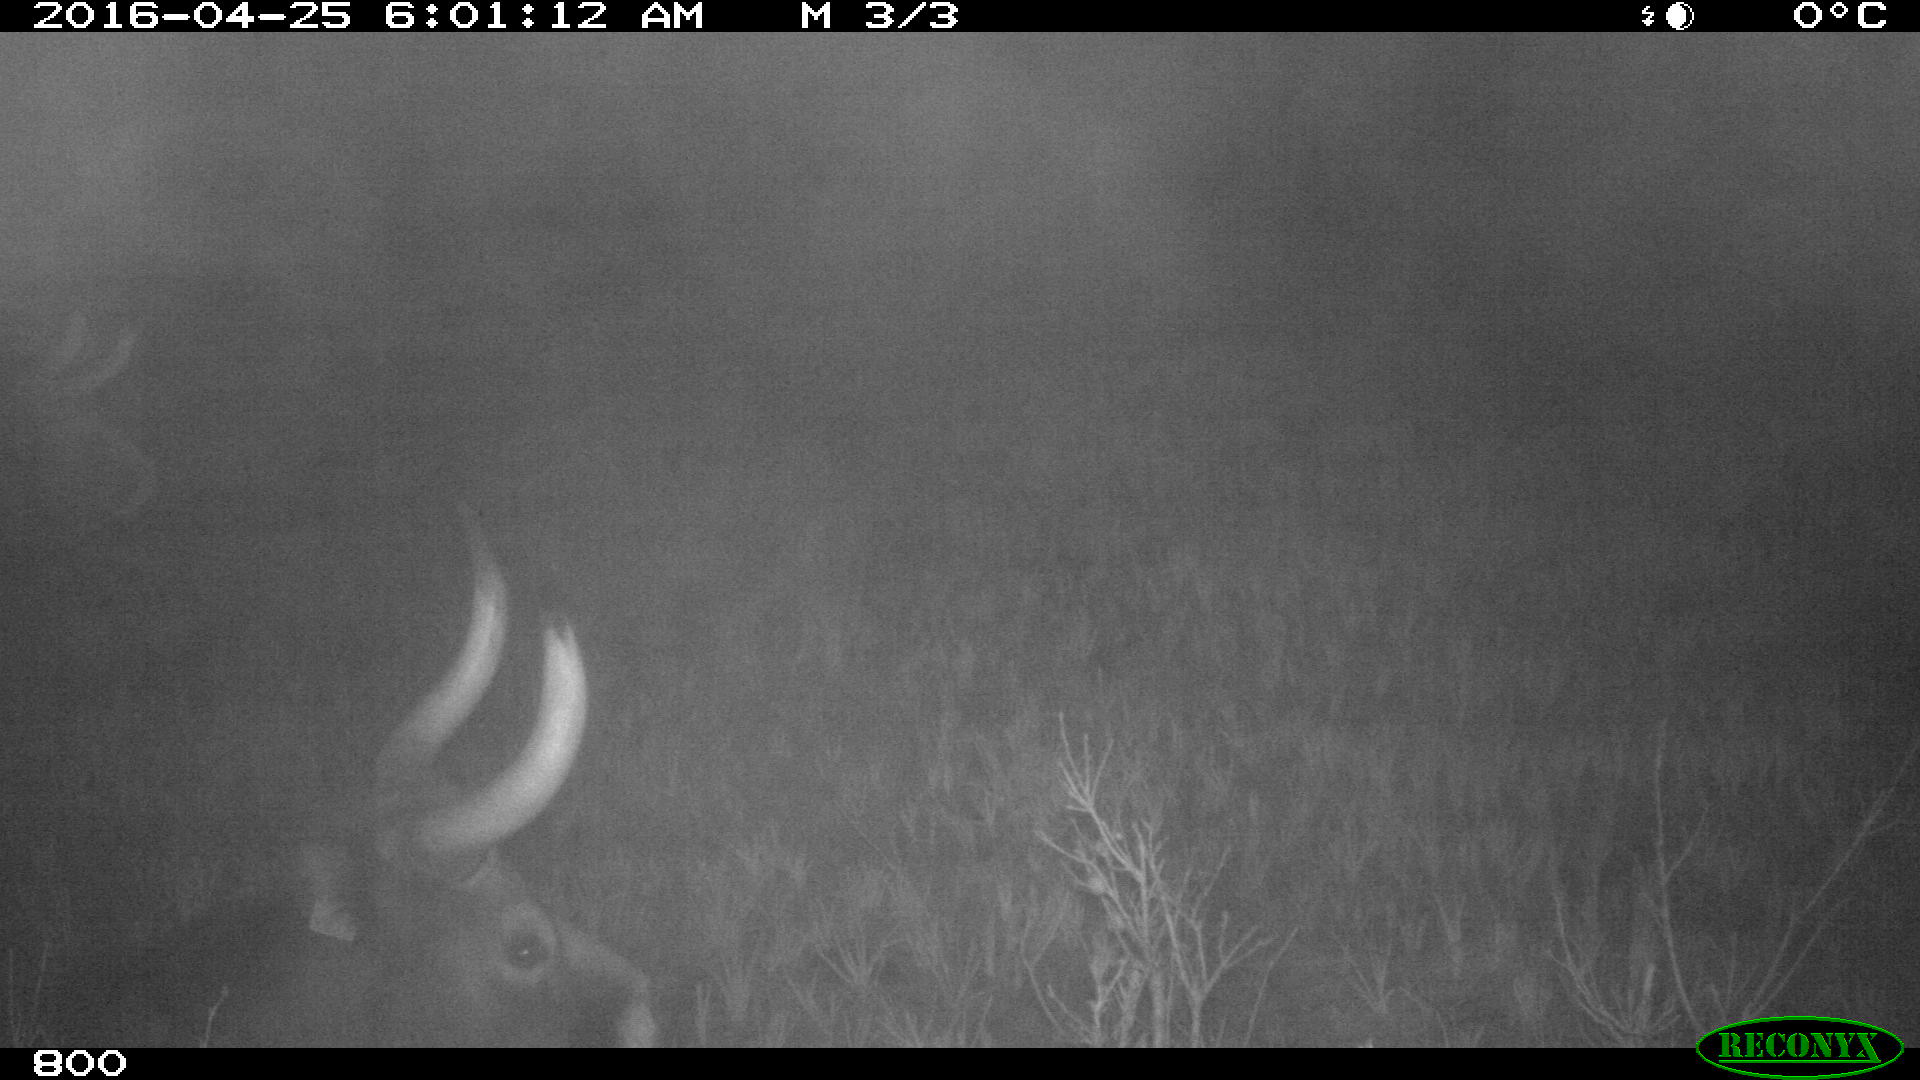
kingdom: Animalia
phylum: Chordata
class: Mammalia
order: Artiodactyla
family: Bovidae
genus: Bos
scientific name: Bos taurus
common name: Domesticated cattle
